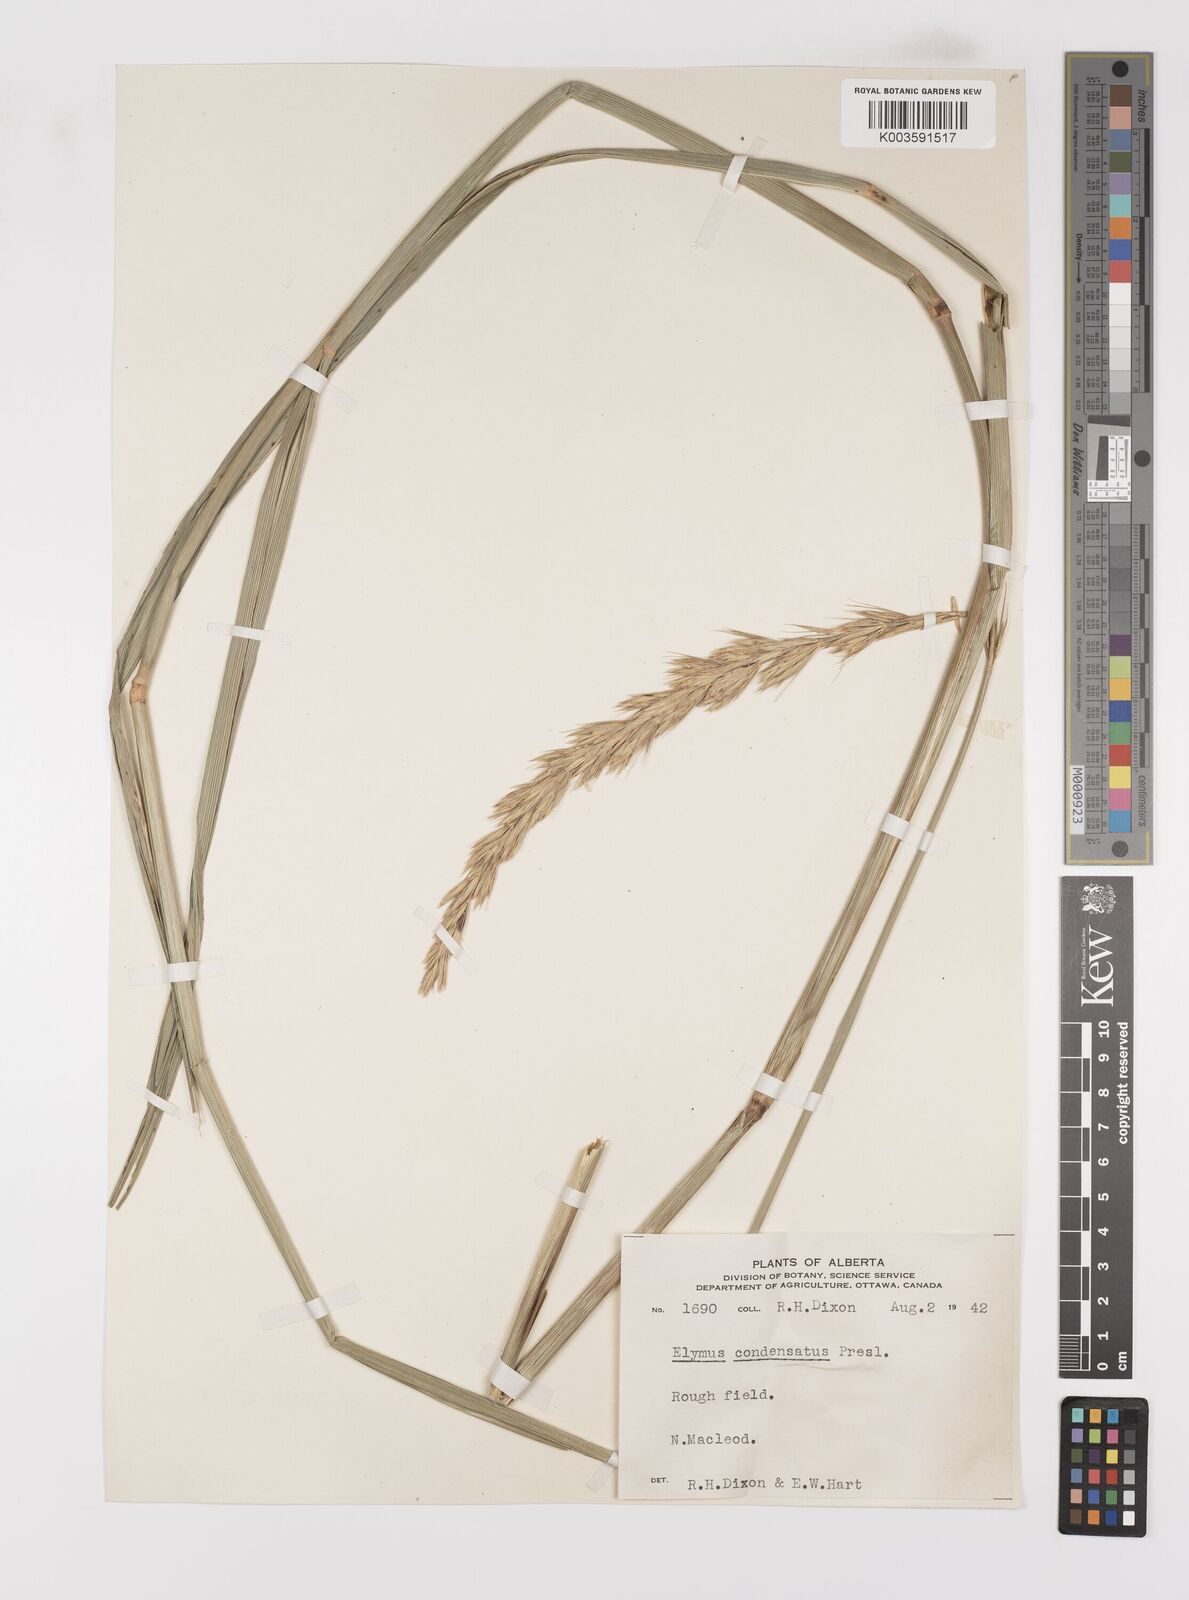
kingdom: Plantae
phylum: Tracheophyta
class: Liliopsida
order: Poales
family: Poaceae
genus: Leymus
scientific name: Leymus condensatus
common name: Giant wild rye
